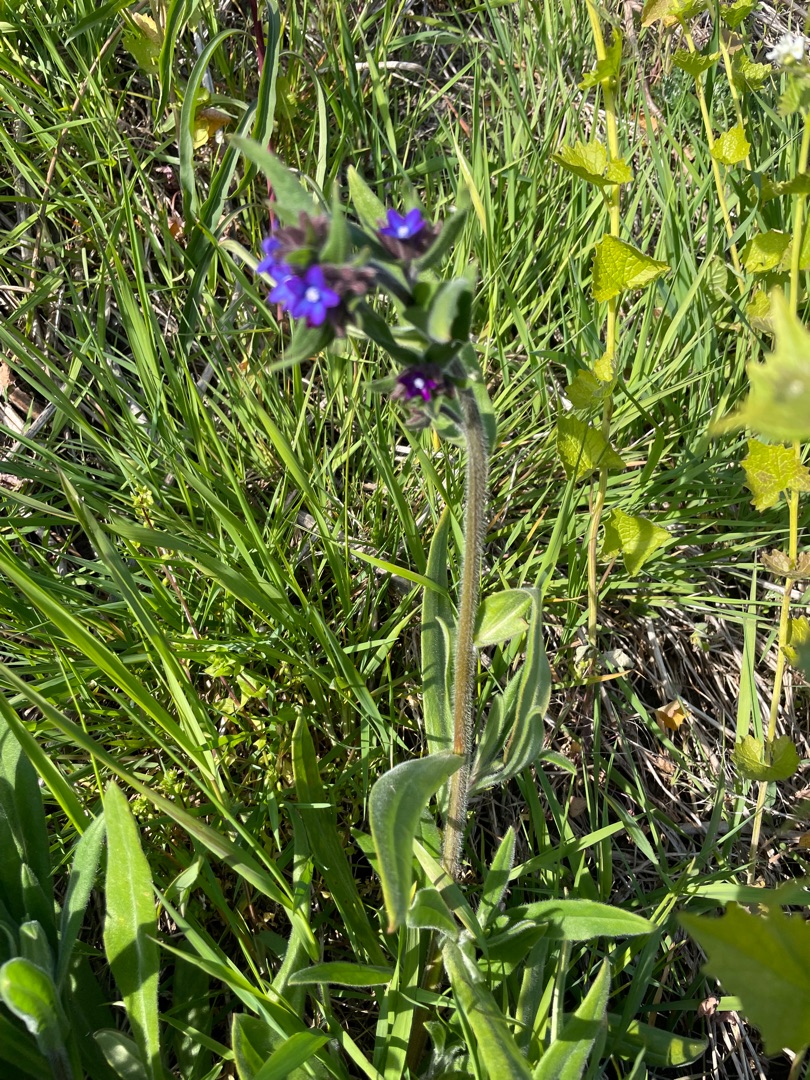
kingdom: Plantae
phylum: Tracheophyta
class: Magnoliopsida
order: Boraginales
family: Boraginaceae
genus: Anchusa
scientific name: Anchusa officinalis
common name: Læge-oksetunge
